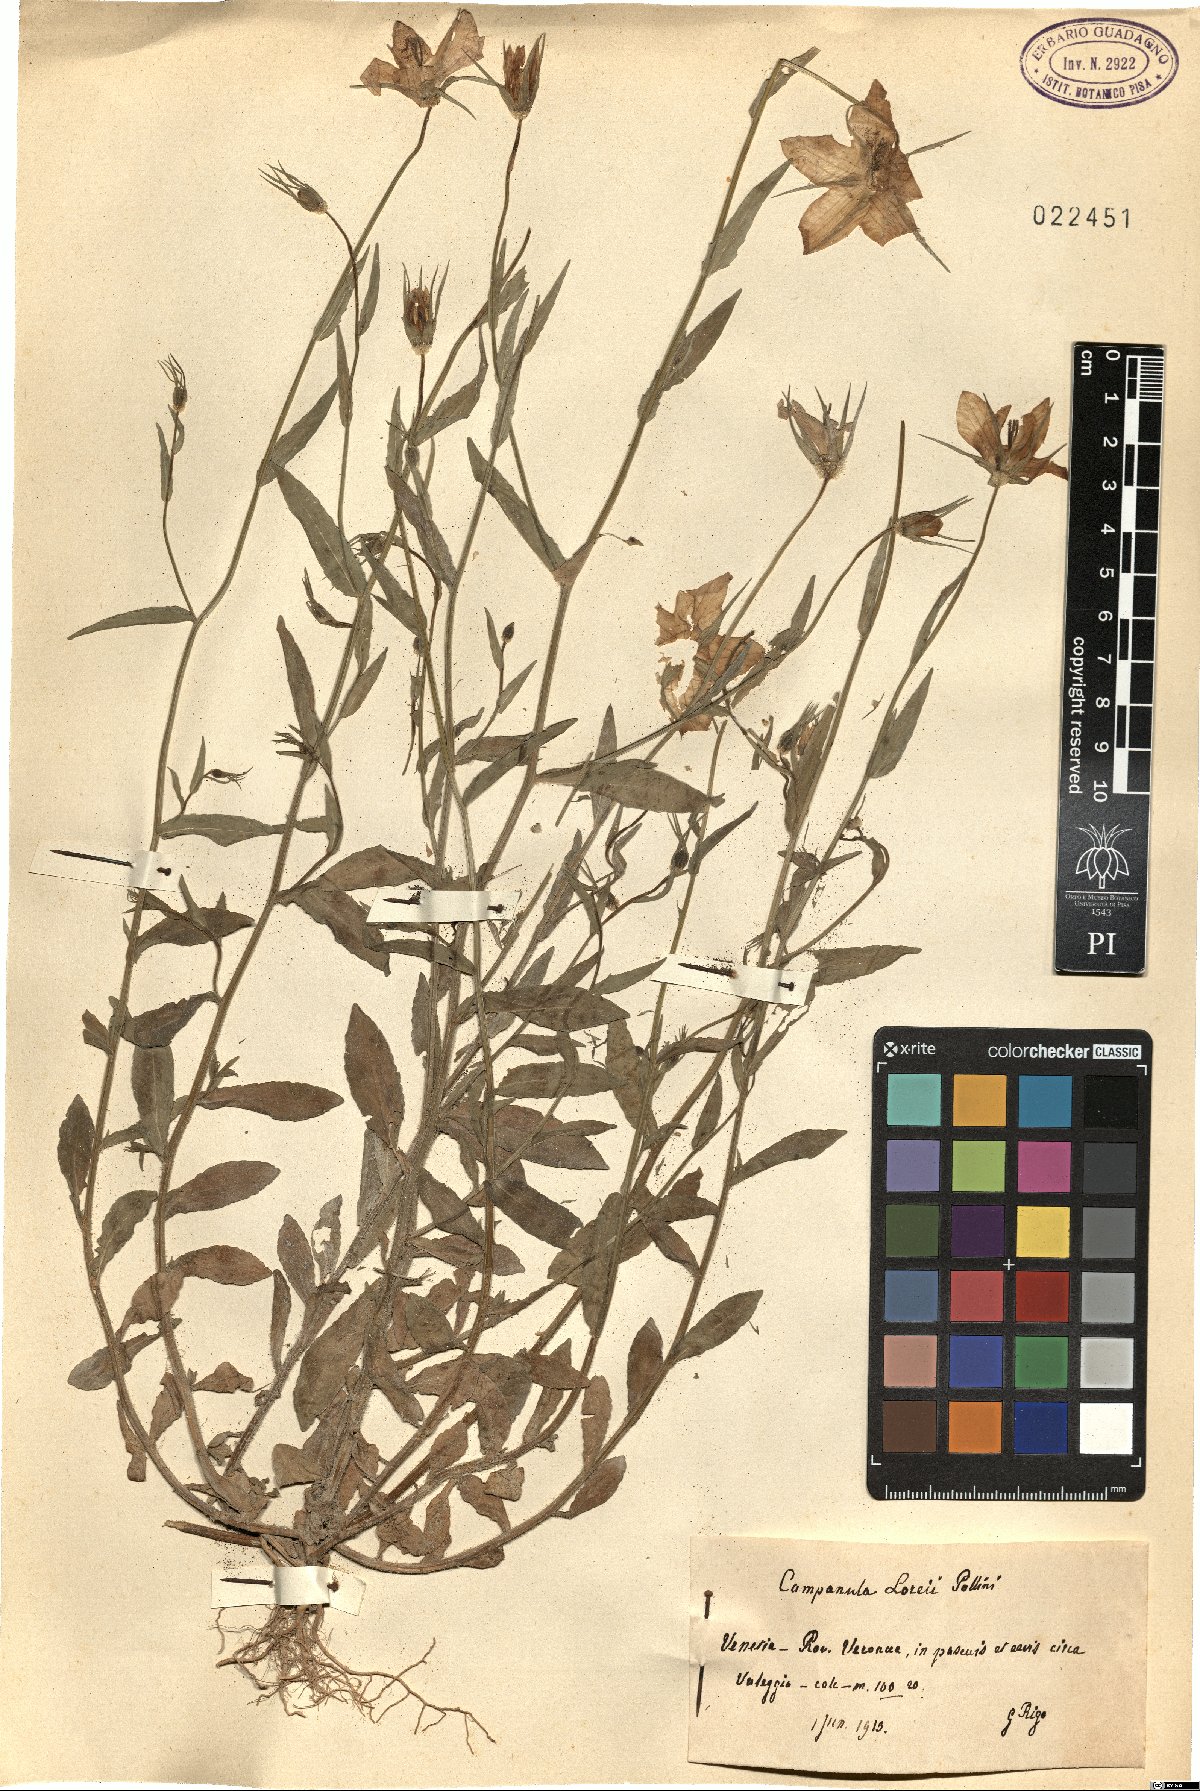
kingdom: Plantae
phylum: Tracheophyta
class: Magnoliopsida
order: Asterales
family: Campanulaceae
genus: Campanula
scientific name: Campanula ramosissima
